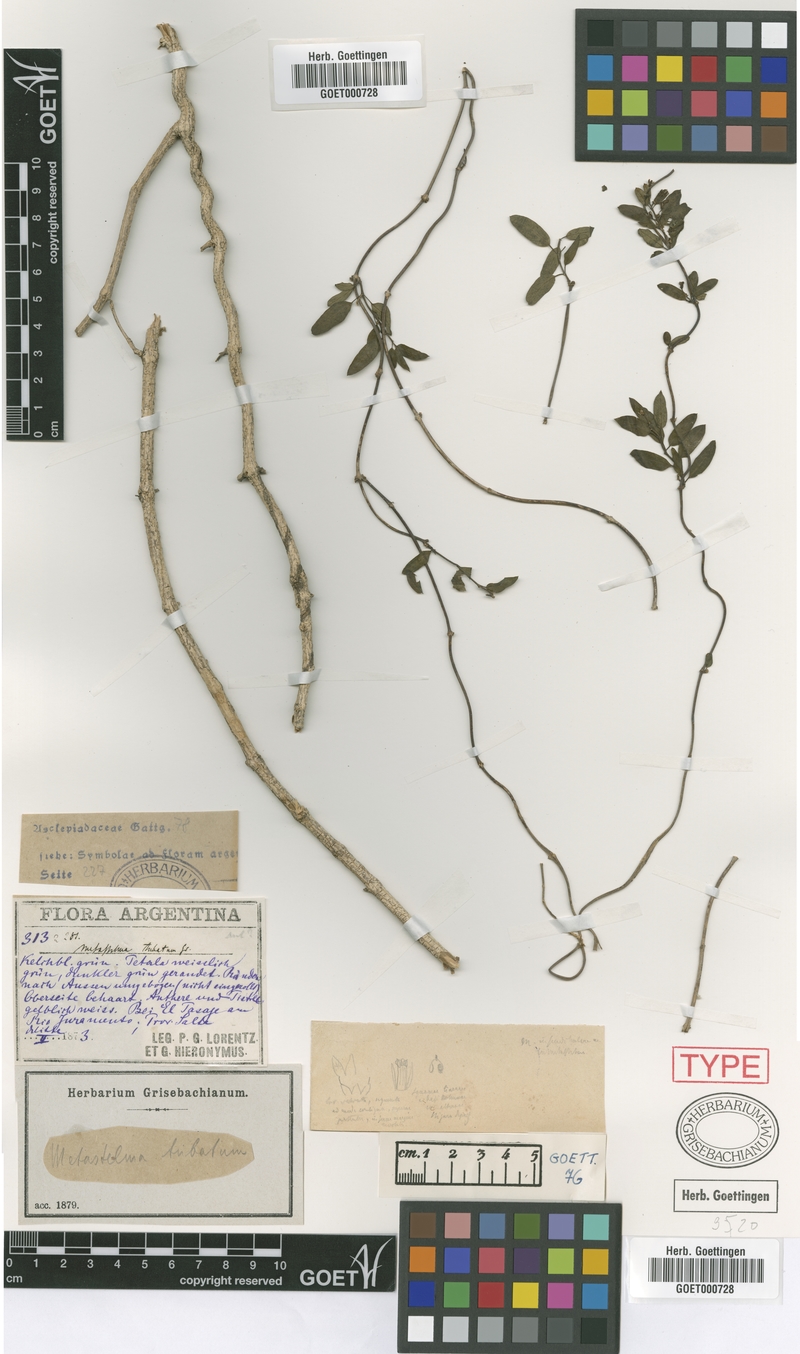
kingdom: Plantae
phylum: Tracheophyta
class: Magnoliopsida
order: Gentianales
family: Apocynaceae
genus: Metastelma
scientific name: Metastelma tubatum
